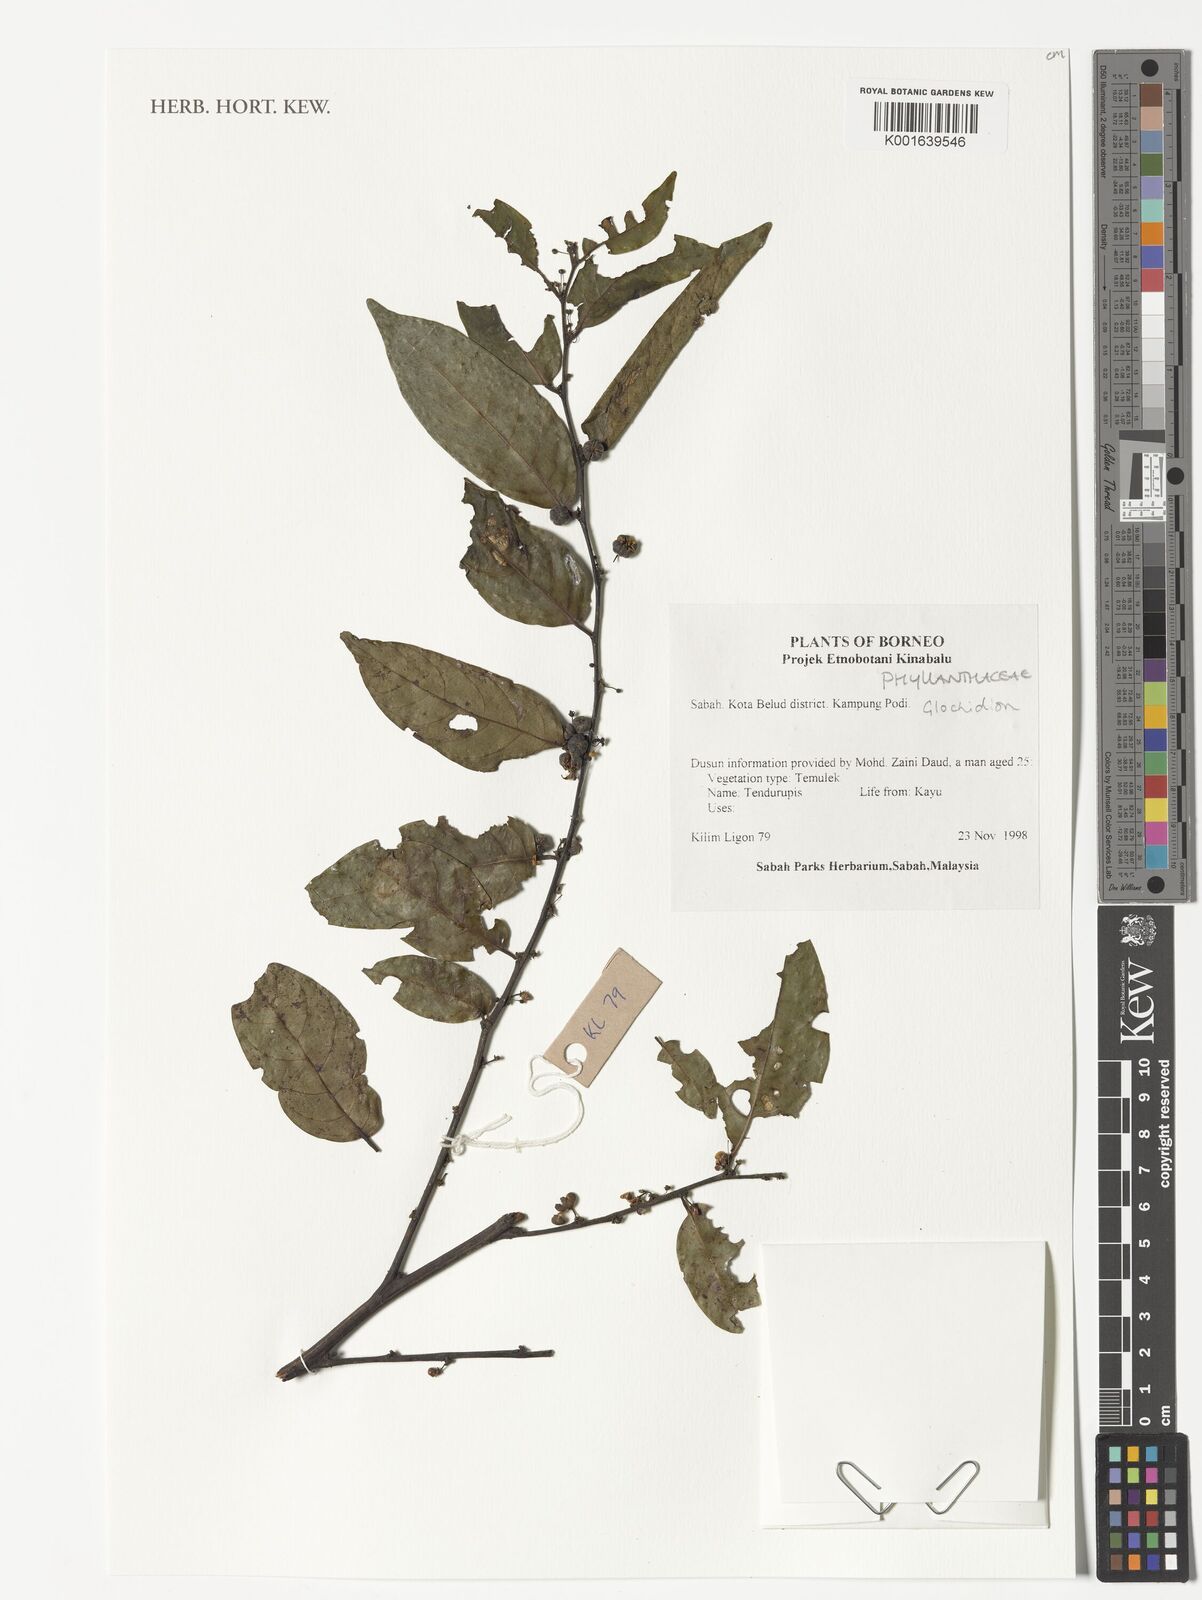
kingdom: Plantae
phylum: Tracheophyta
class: Magnoliopsida
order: Malpighiales
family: Phyllanthaceae
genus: Glochidion
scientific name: Glochidion
